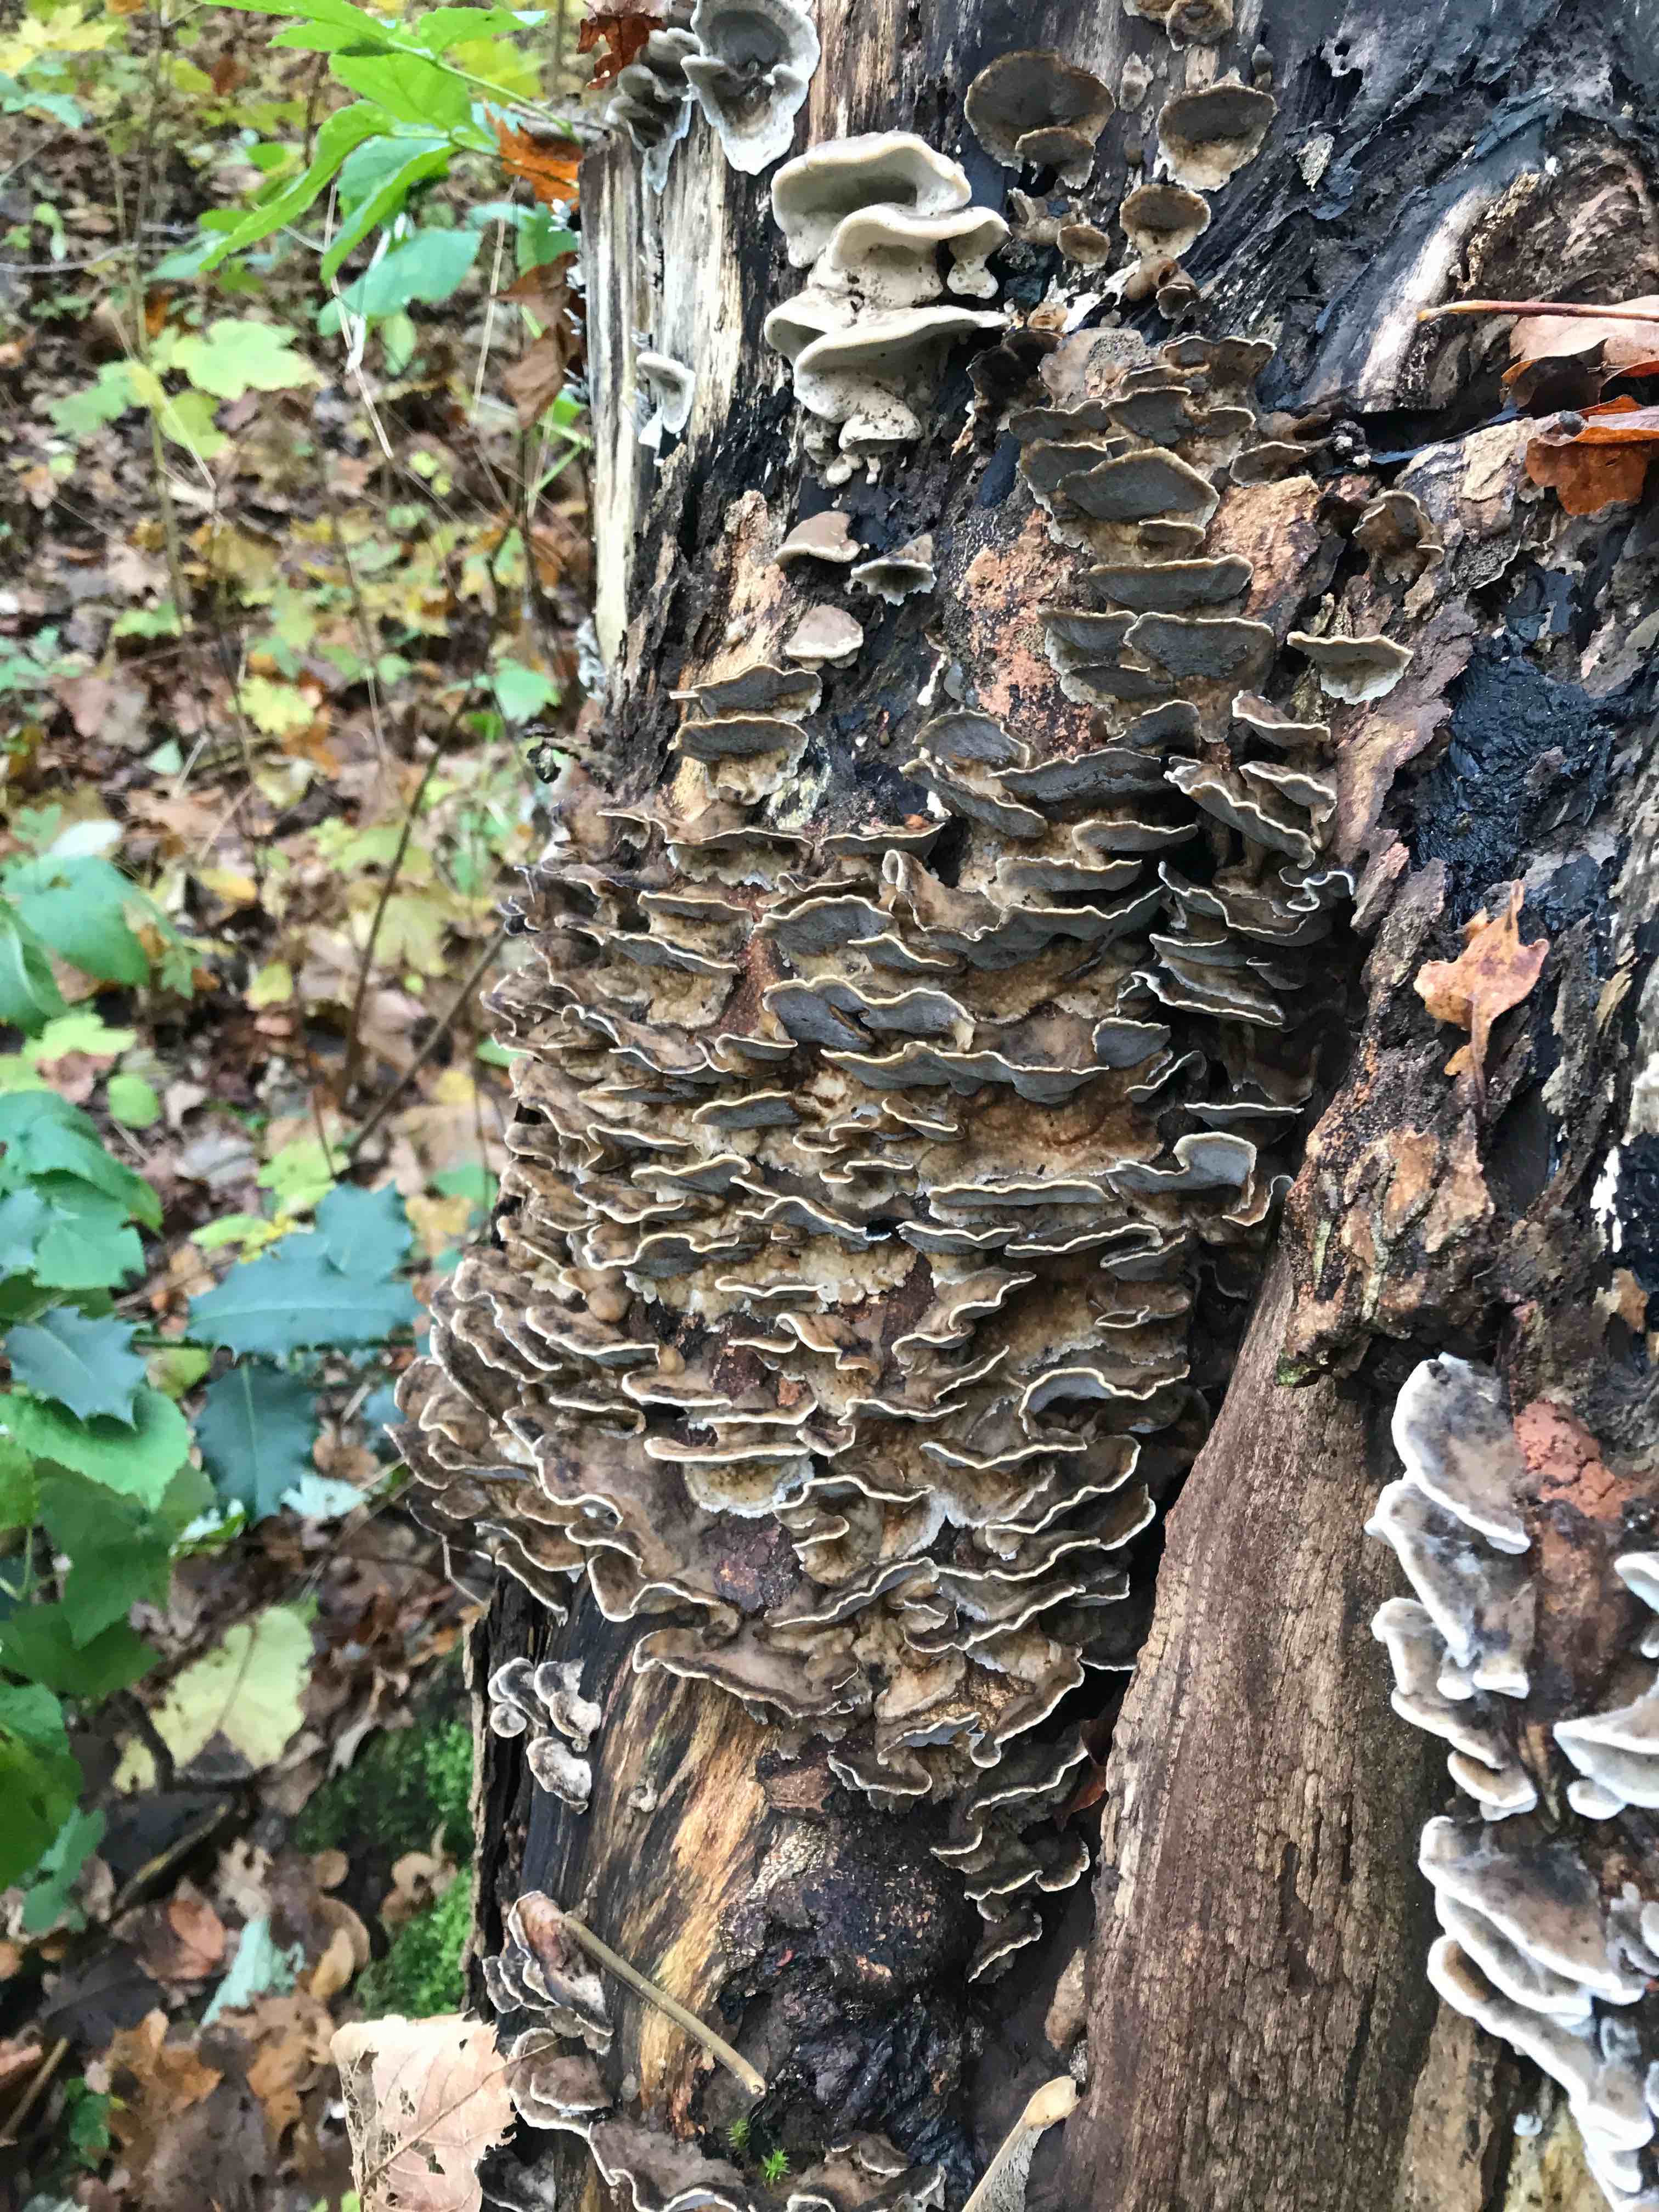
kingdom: Fungi
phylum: Basidiomycota
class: Agaricomycetes
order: Polyporales
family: Phanerochaetaceae
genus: Bjerkandera
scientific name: Bjerkandera adusta
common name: sveden sodporesvamp
